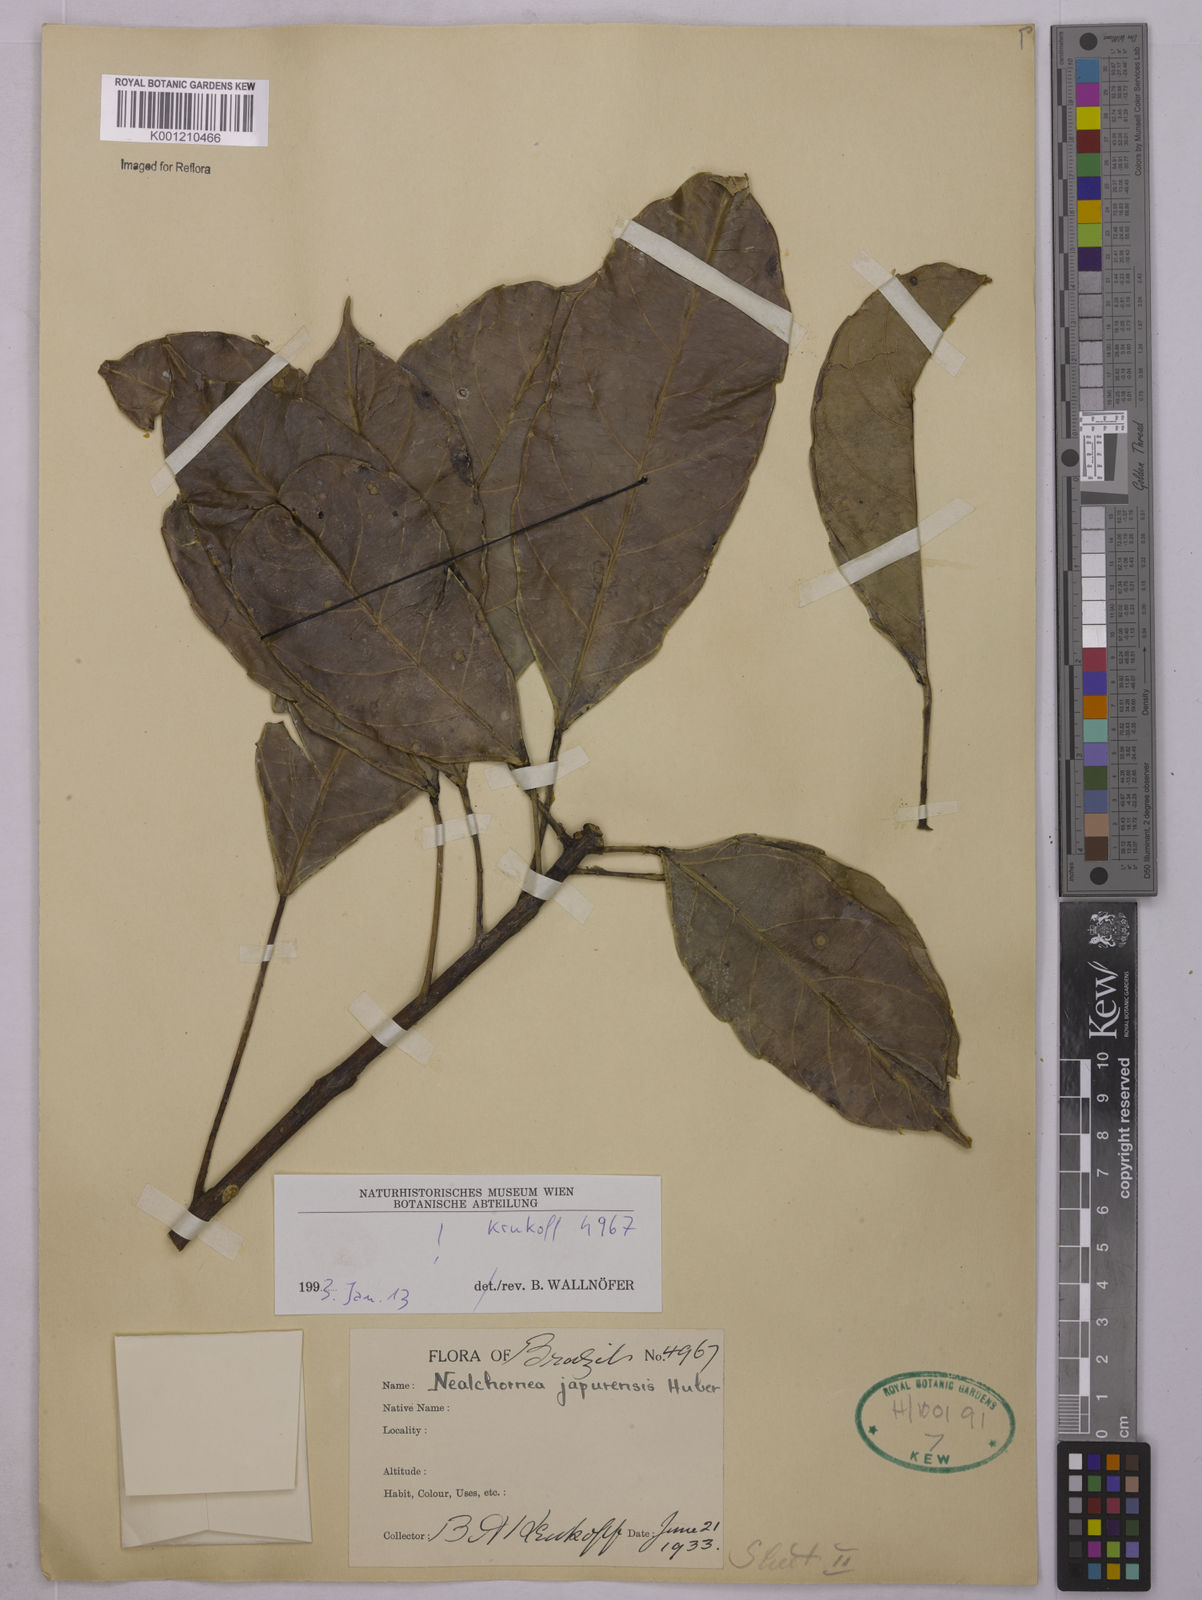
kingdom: Plantae
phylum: Tracheophyta
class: Magnoliopsida
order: Malpighiales
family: Euphorbiaceae
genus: Nealchornea
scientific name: Nealchornea yapurensis
